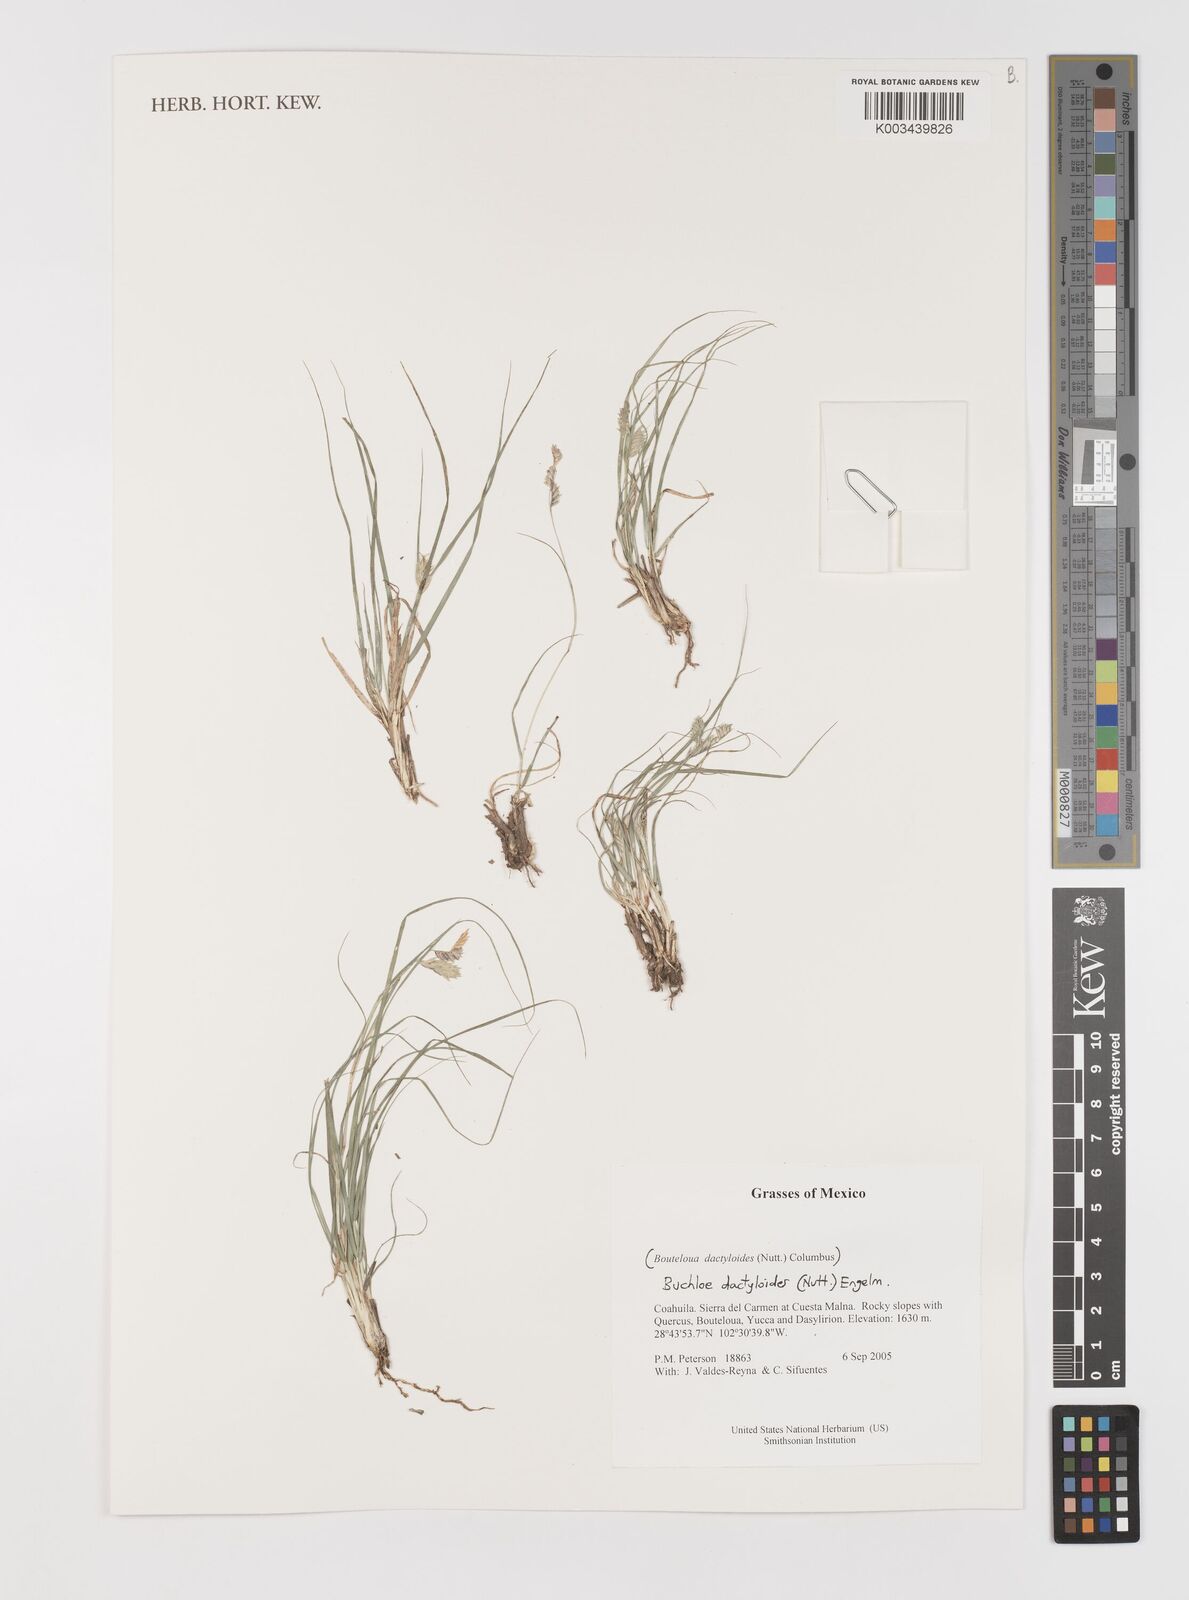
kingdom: Plantae
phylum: Tracheophyta
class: Liliopsida
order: Poales
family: Poaceae
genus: Bouteloua
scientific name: Bouteloua dactyloides
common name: Buffalo grass
